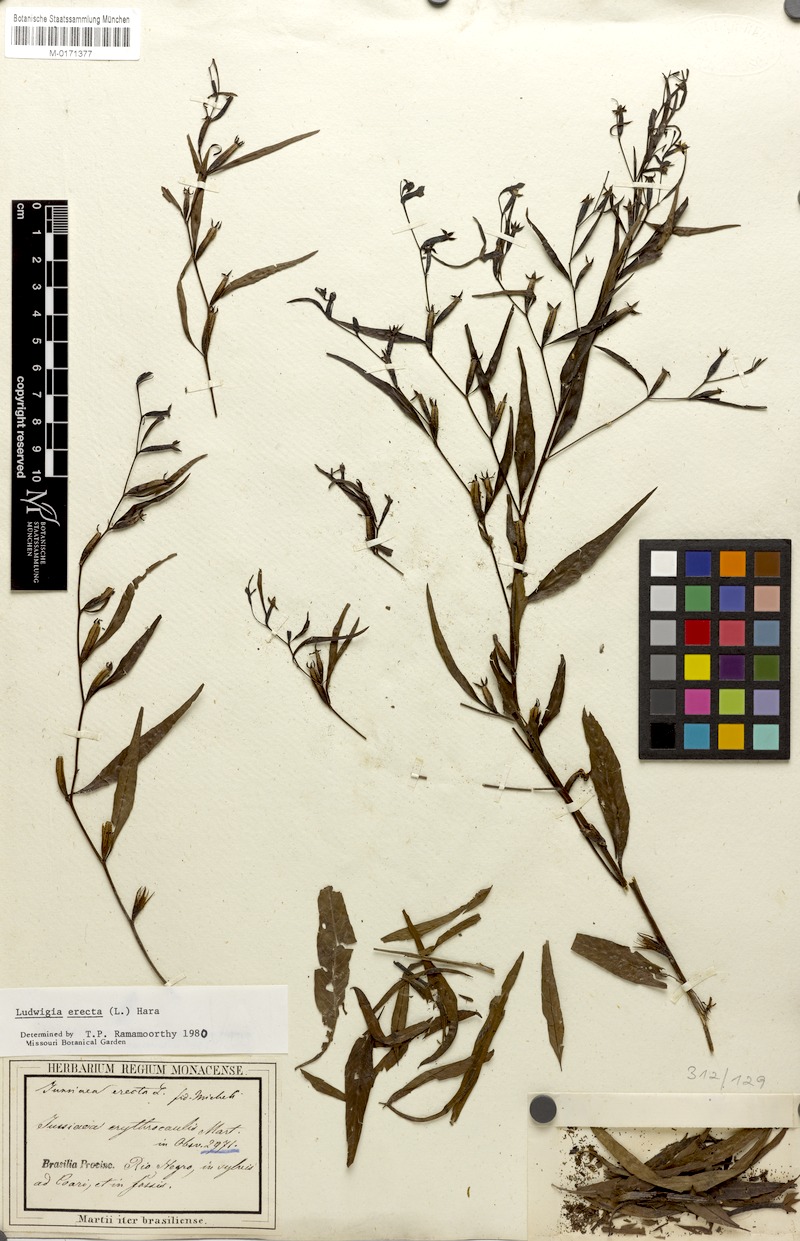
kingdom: Plantae
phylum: Tracheophyta
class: Magnoliopsida
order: Myrtales
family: Onagraceae
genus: Ludwigia
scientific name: Ludwigia erecta
